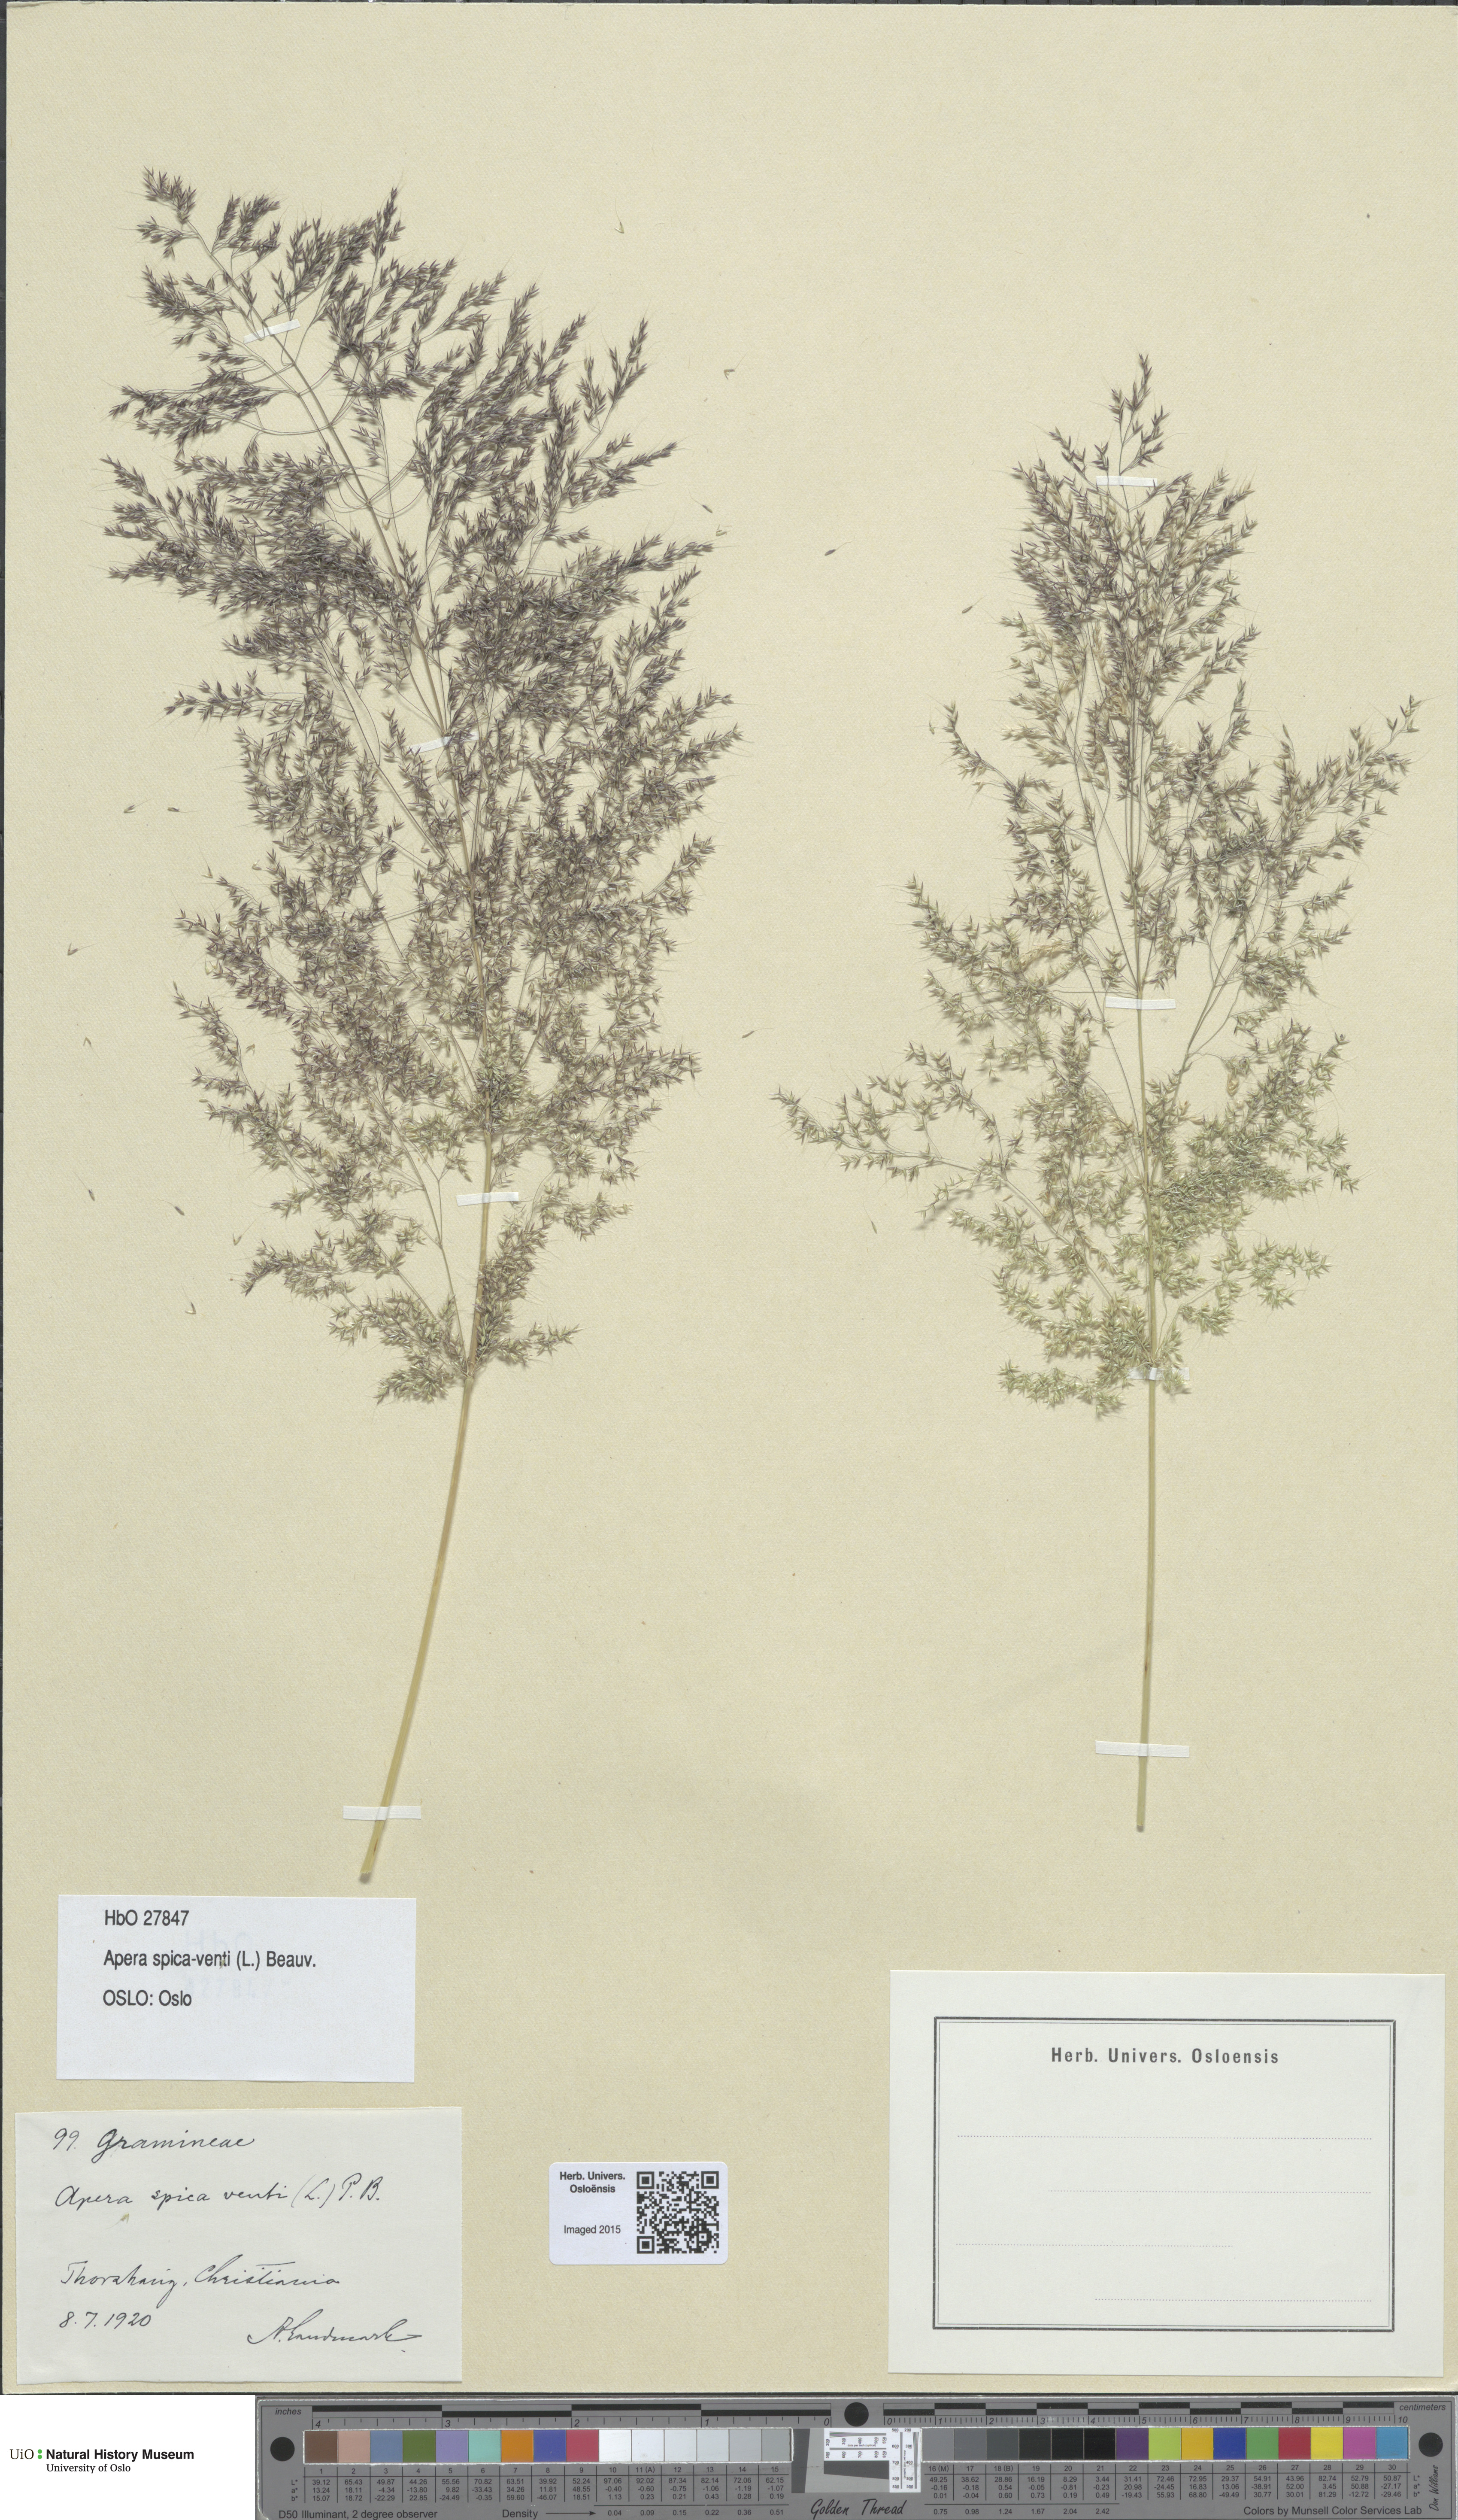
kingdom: Plantae
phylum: Tracheophyta
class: Liliopsida
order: Poales
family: Poaceae
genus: Apera
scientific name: Apera spica-venti
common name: Loose silky-bent
